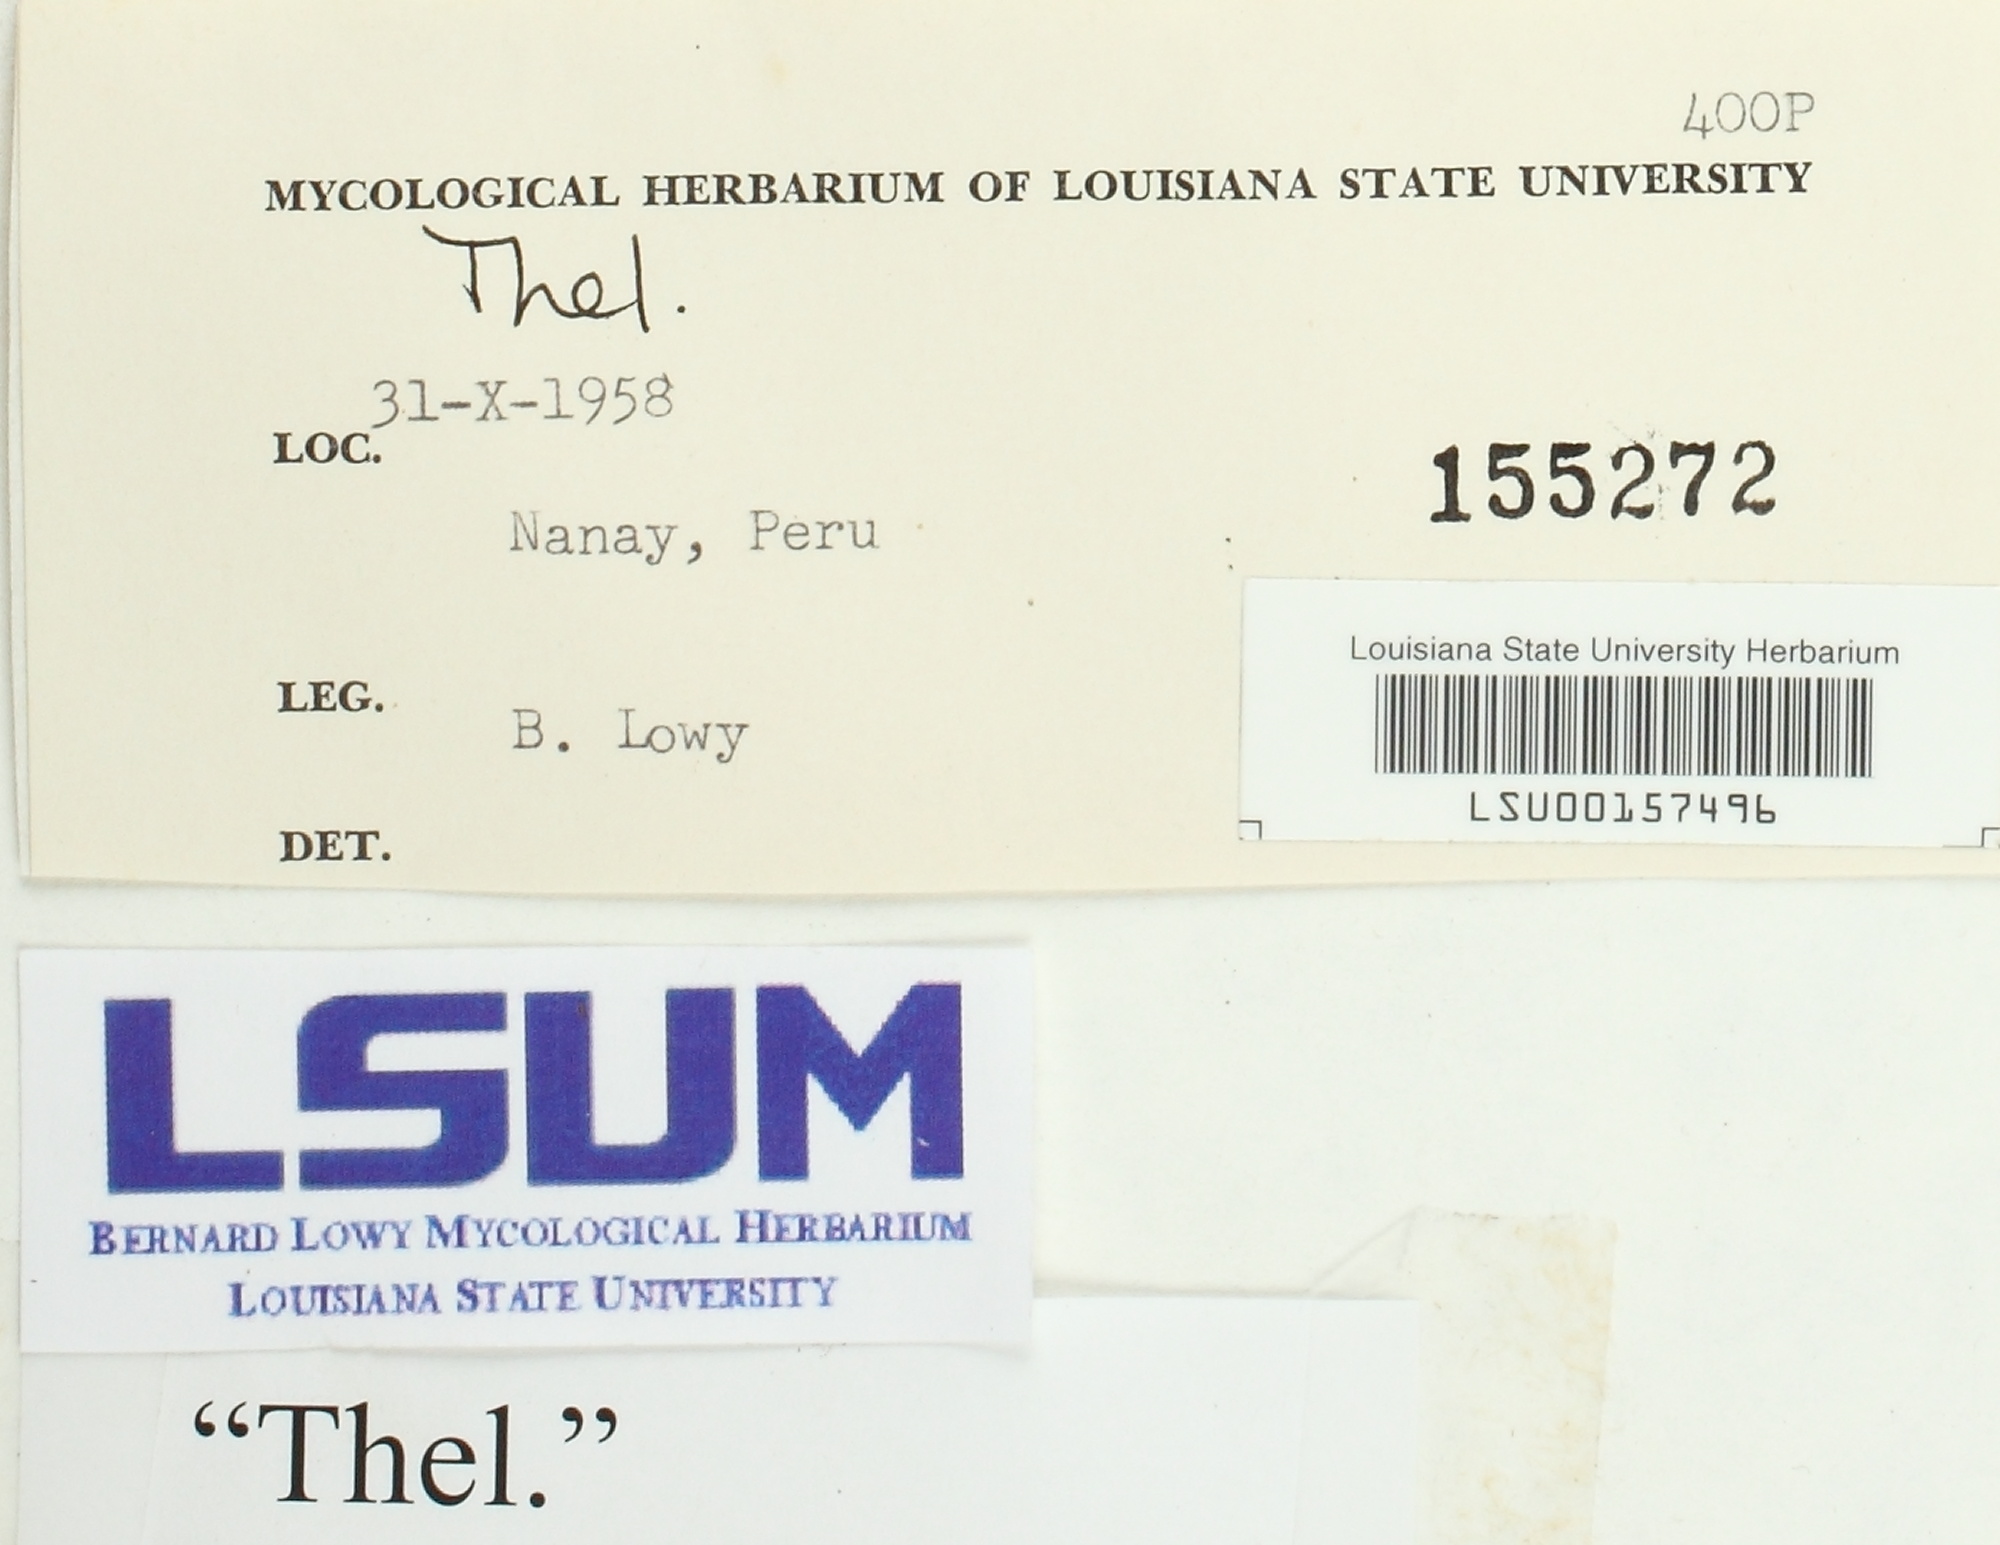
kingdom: Fungi
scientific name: Fungi
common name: Fungi
